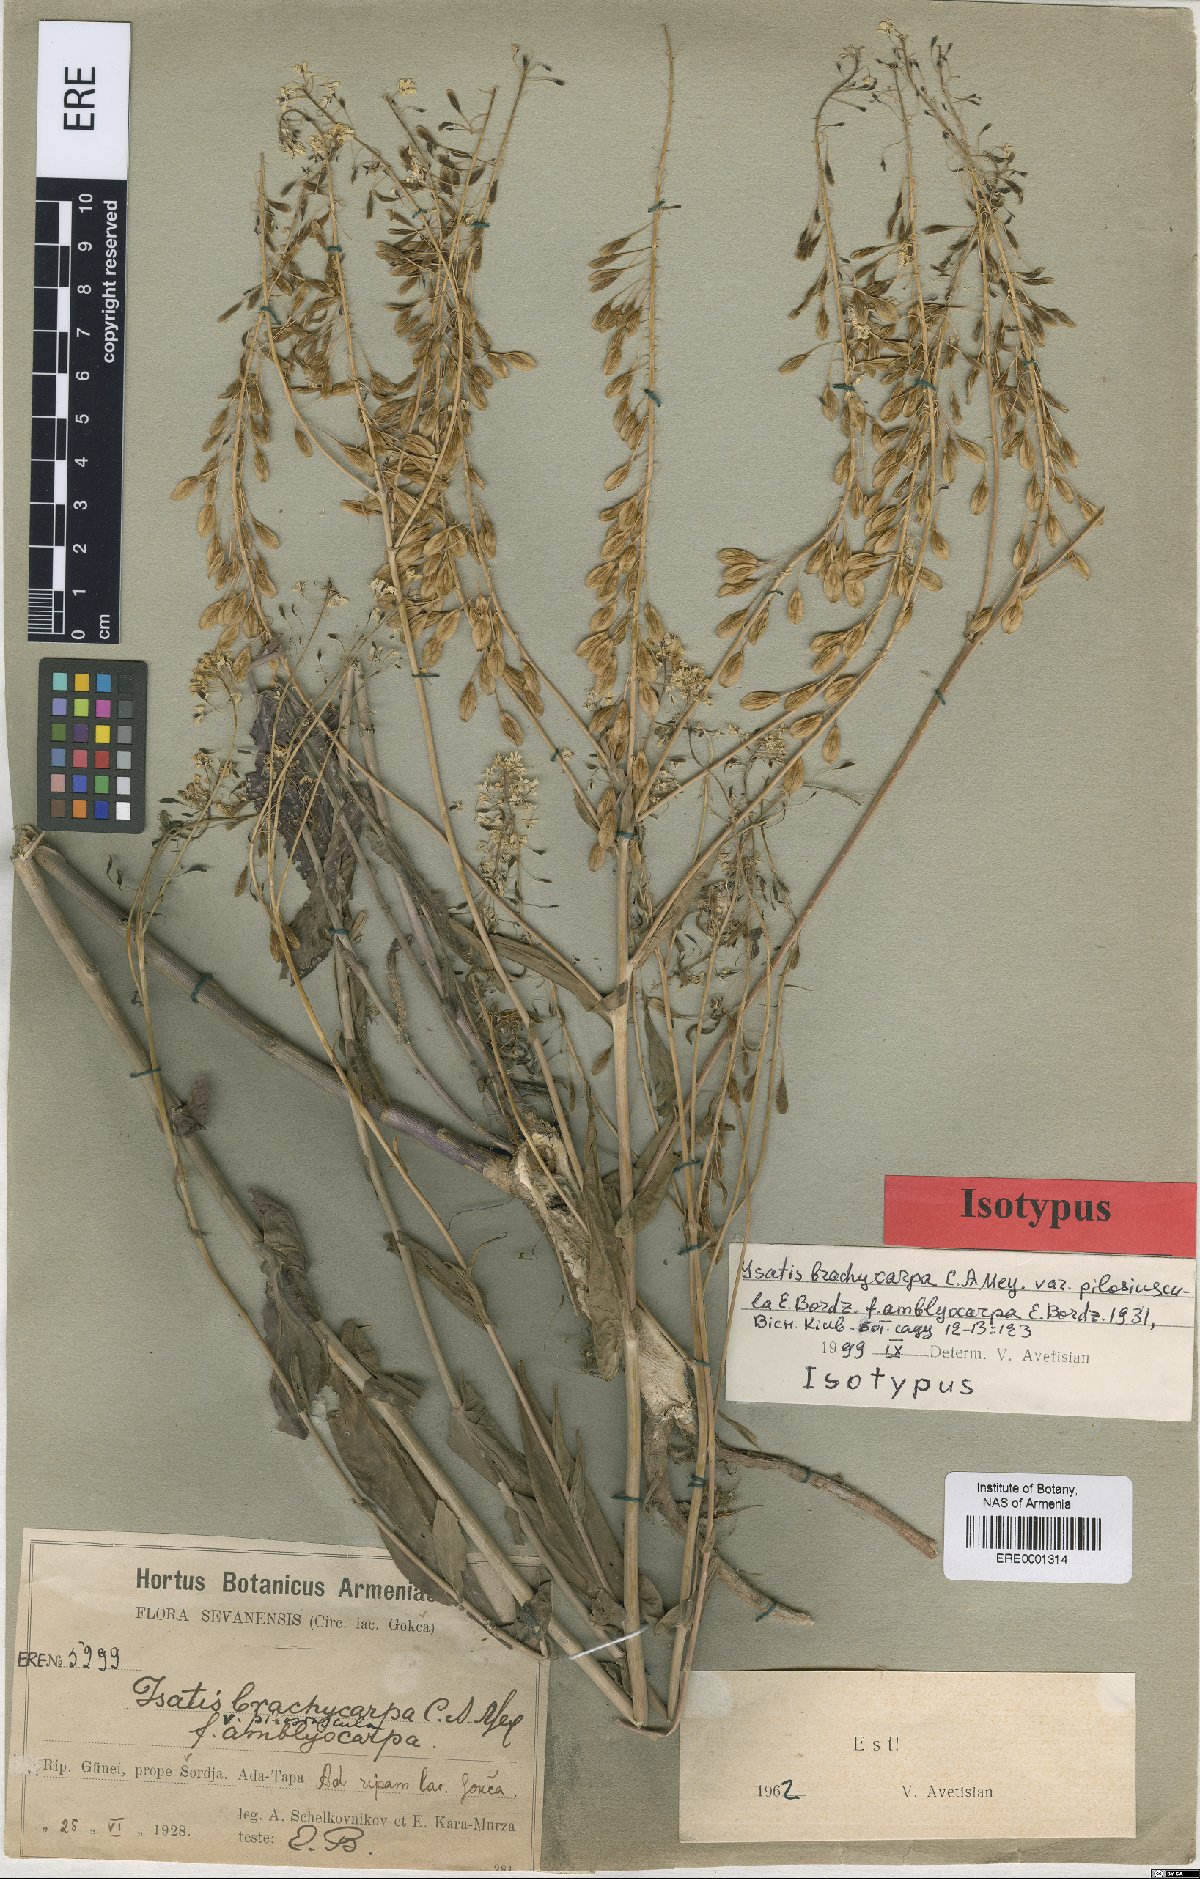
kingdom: Plantae
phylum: Tracheophyta
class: Magnoliopsida
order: Brassicales
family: Brassicaceae
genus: Isatis
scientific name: Isatis brachycarpa
